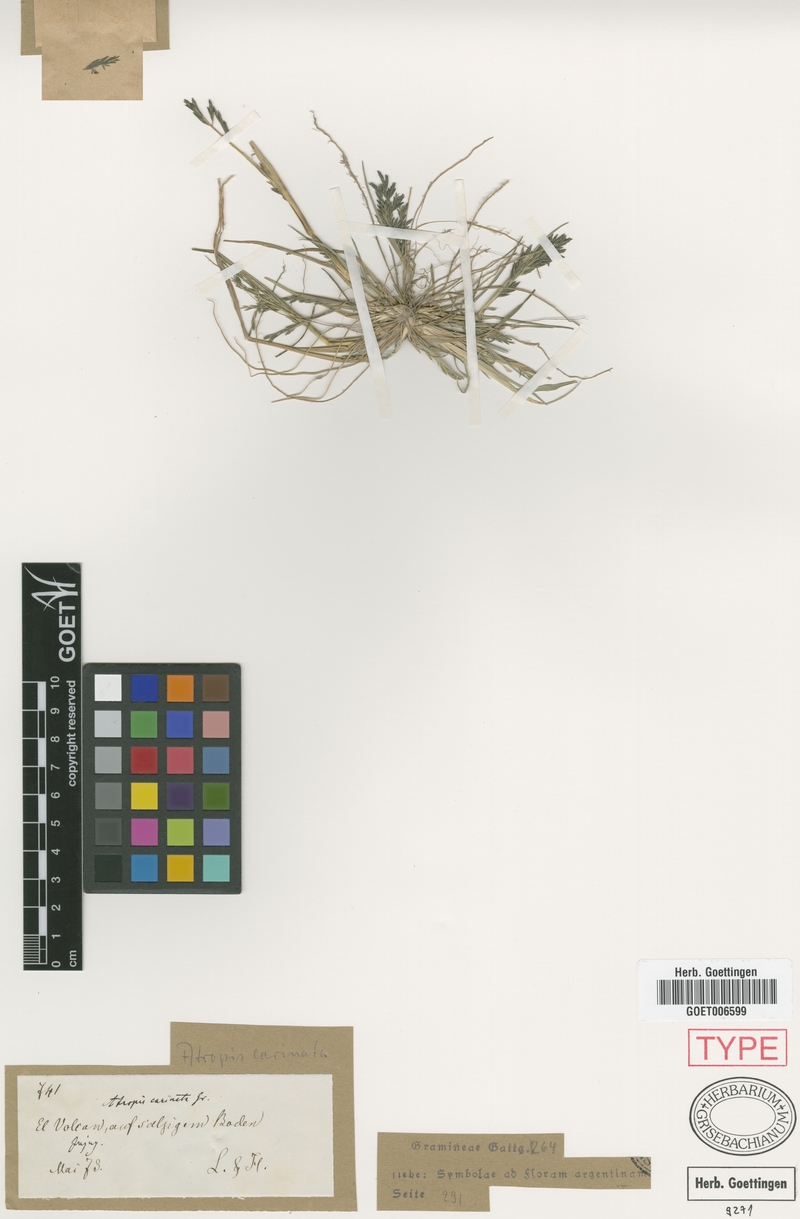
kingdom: Plantae
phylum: Tracheophyta
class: Liliopsida
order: Poales
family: Poaceae
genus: Diplachne
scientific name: Diplachne fusca
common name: Brown beetle grass
